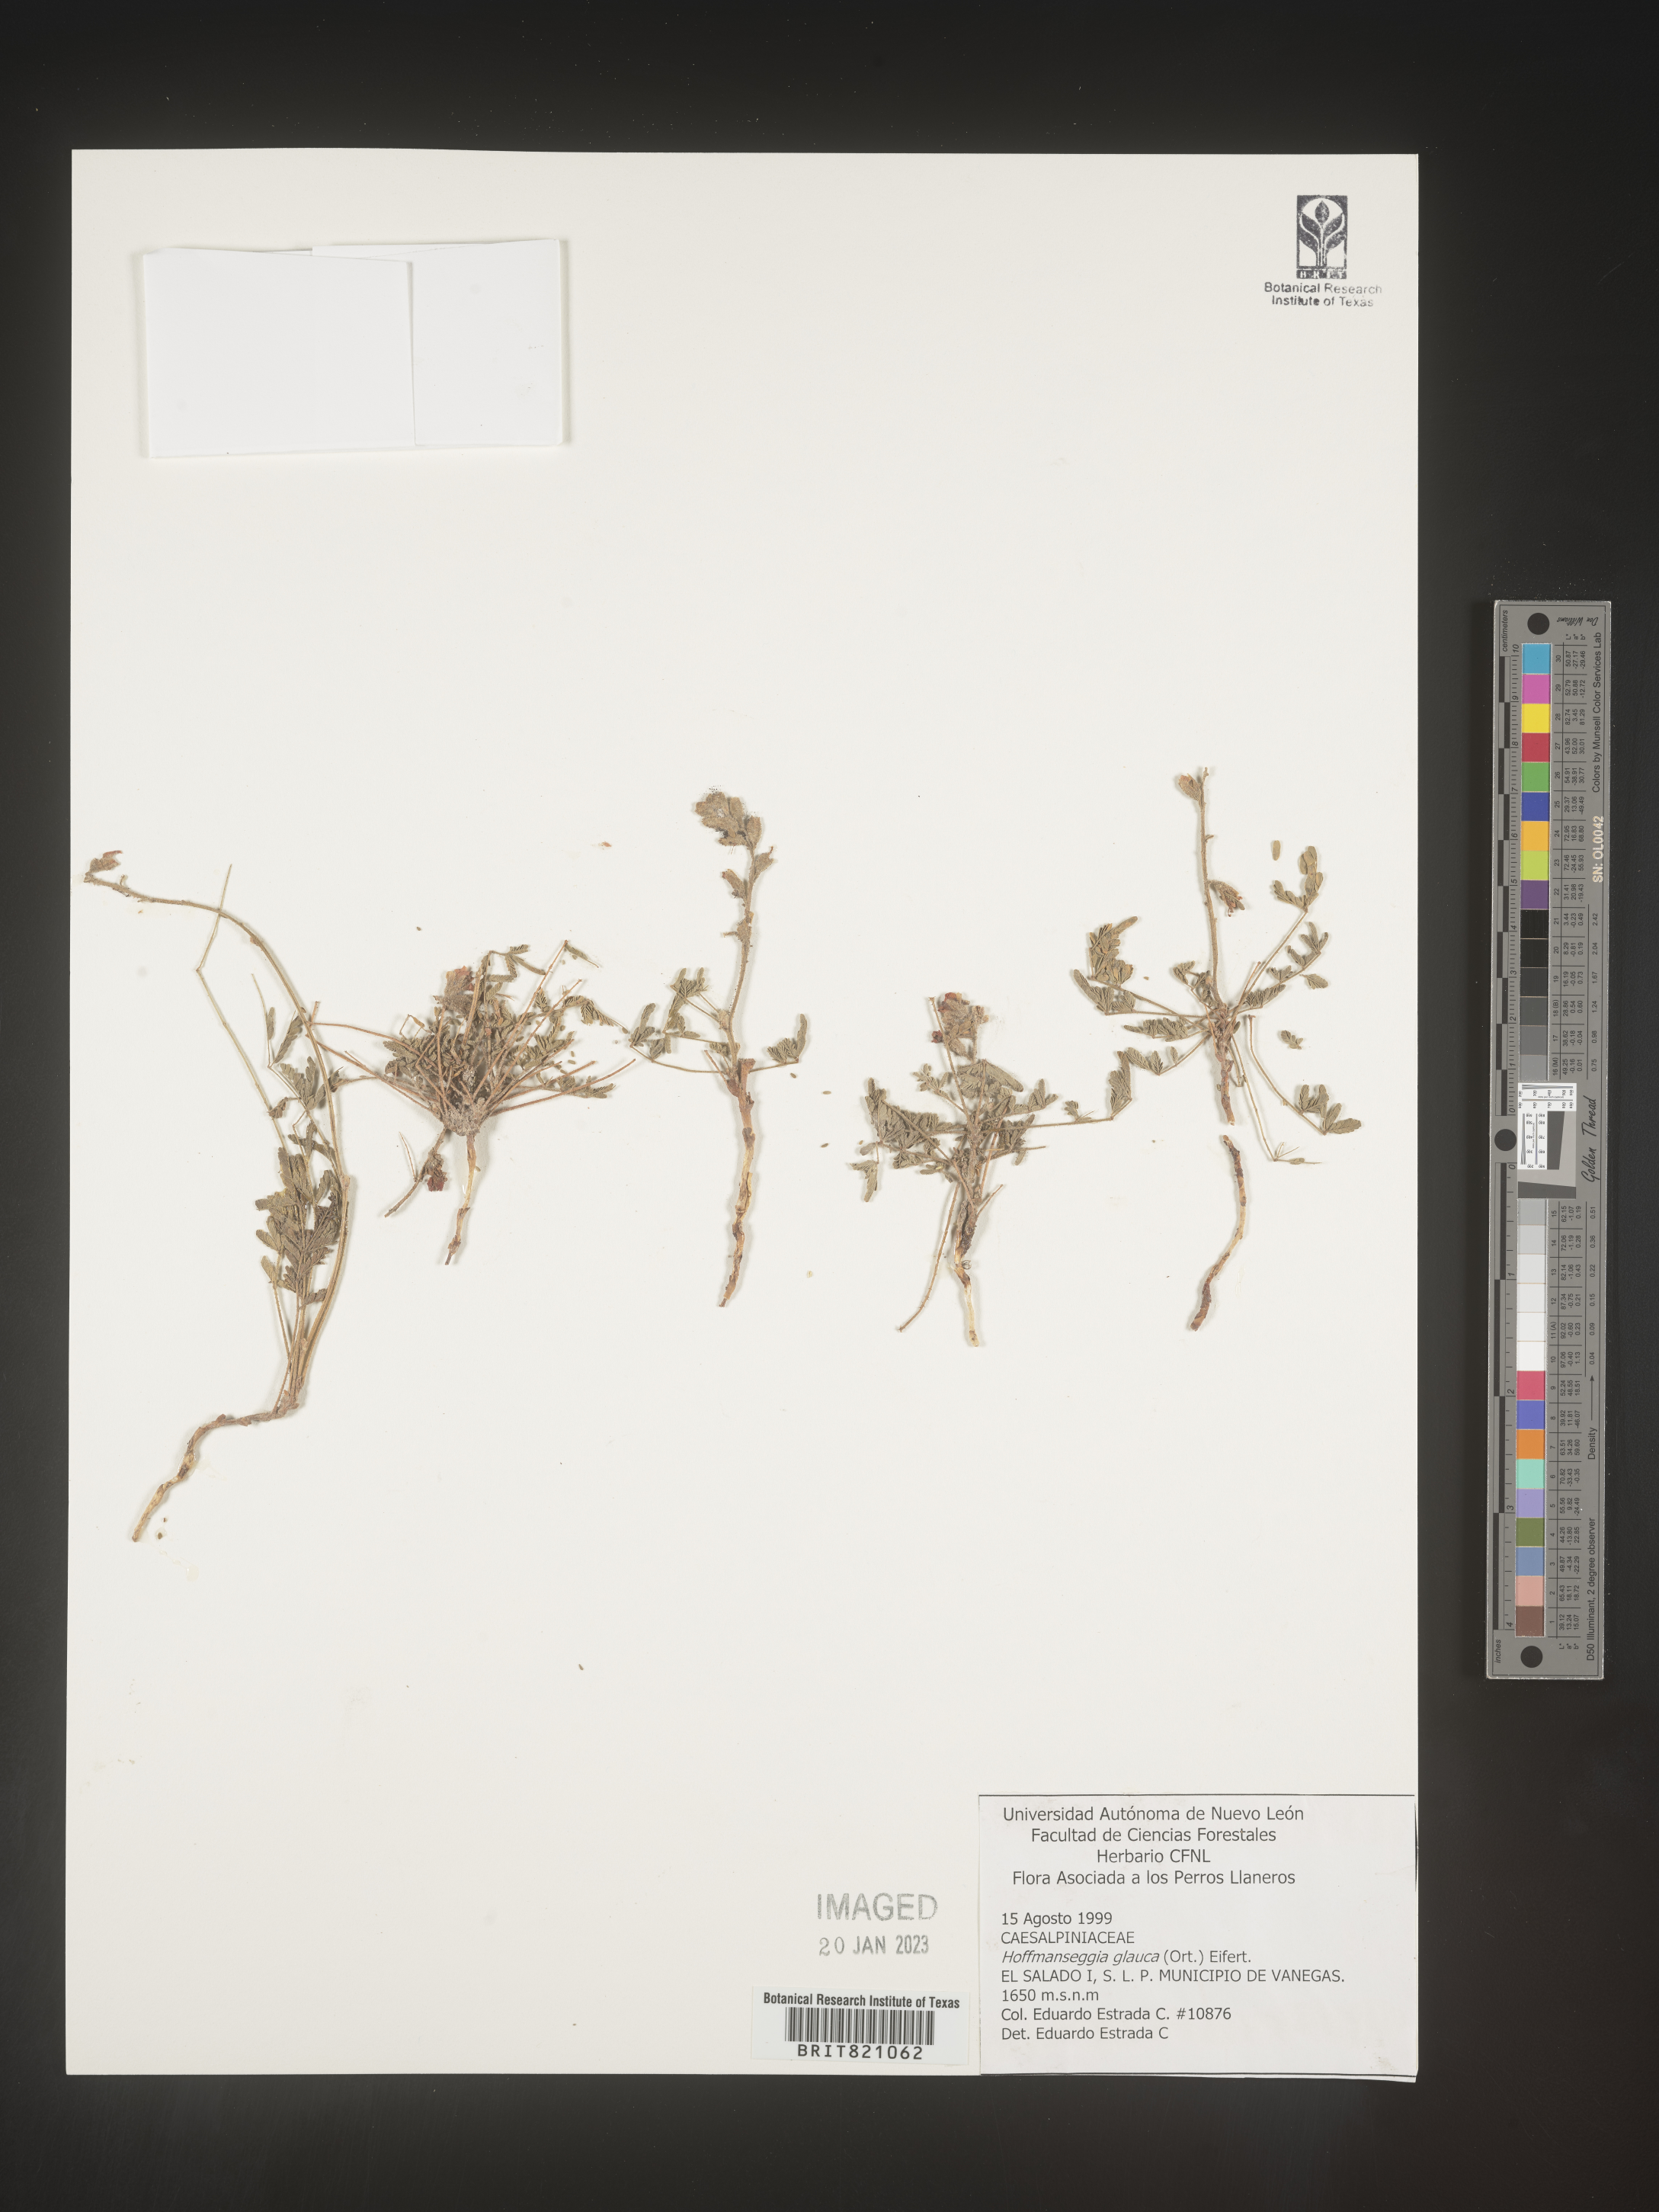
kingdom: Plantae
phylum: Tracheophyta
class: Magnoliopsida
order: Fabales
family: Fabaceae
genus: Hoffmannseggia
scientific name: Hoffmannseggia
